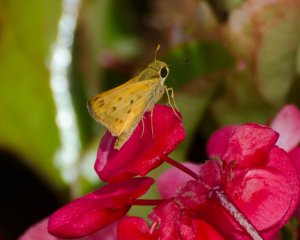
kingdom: Animalia
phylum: Arthropoda
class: Insecta
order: Lepidoptera
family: Hesperiidae
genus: Hylephila
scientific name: Hylephila phyleus
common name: Fiery Skipper
